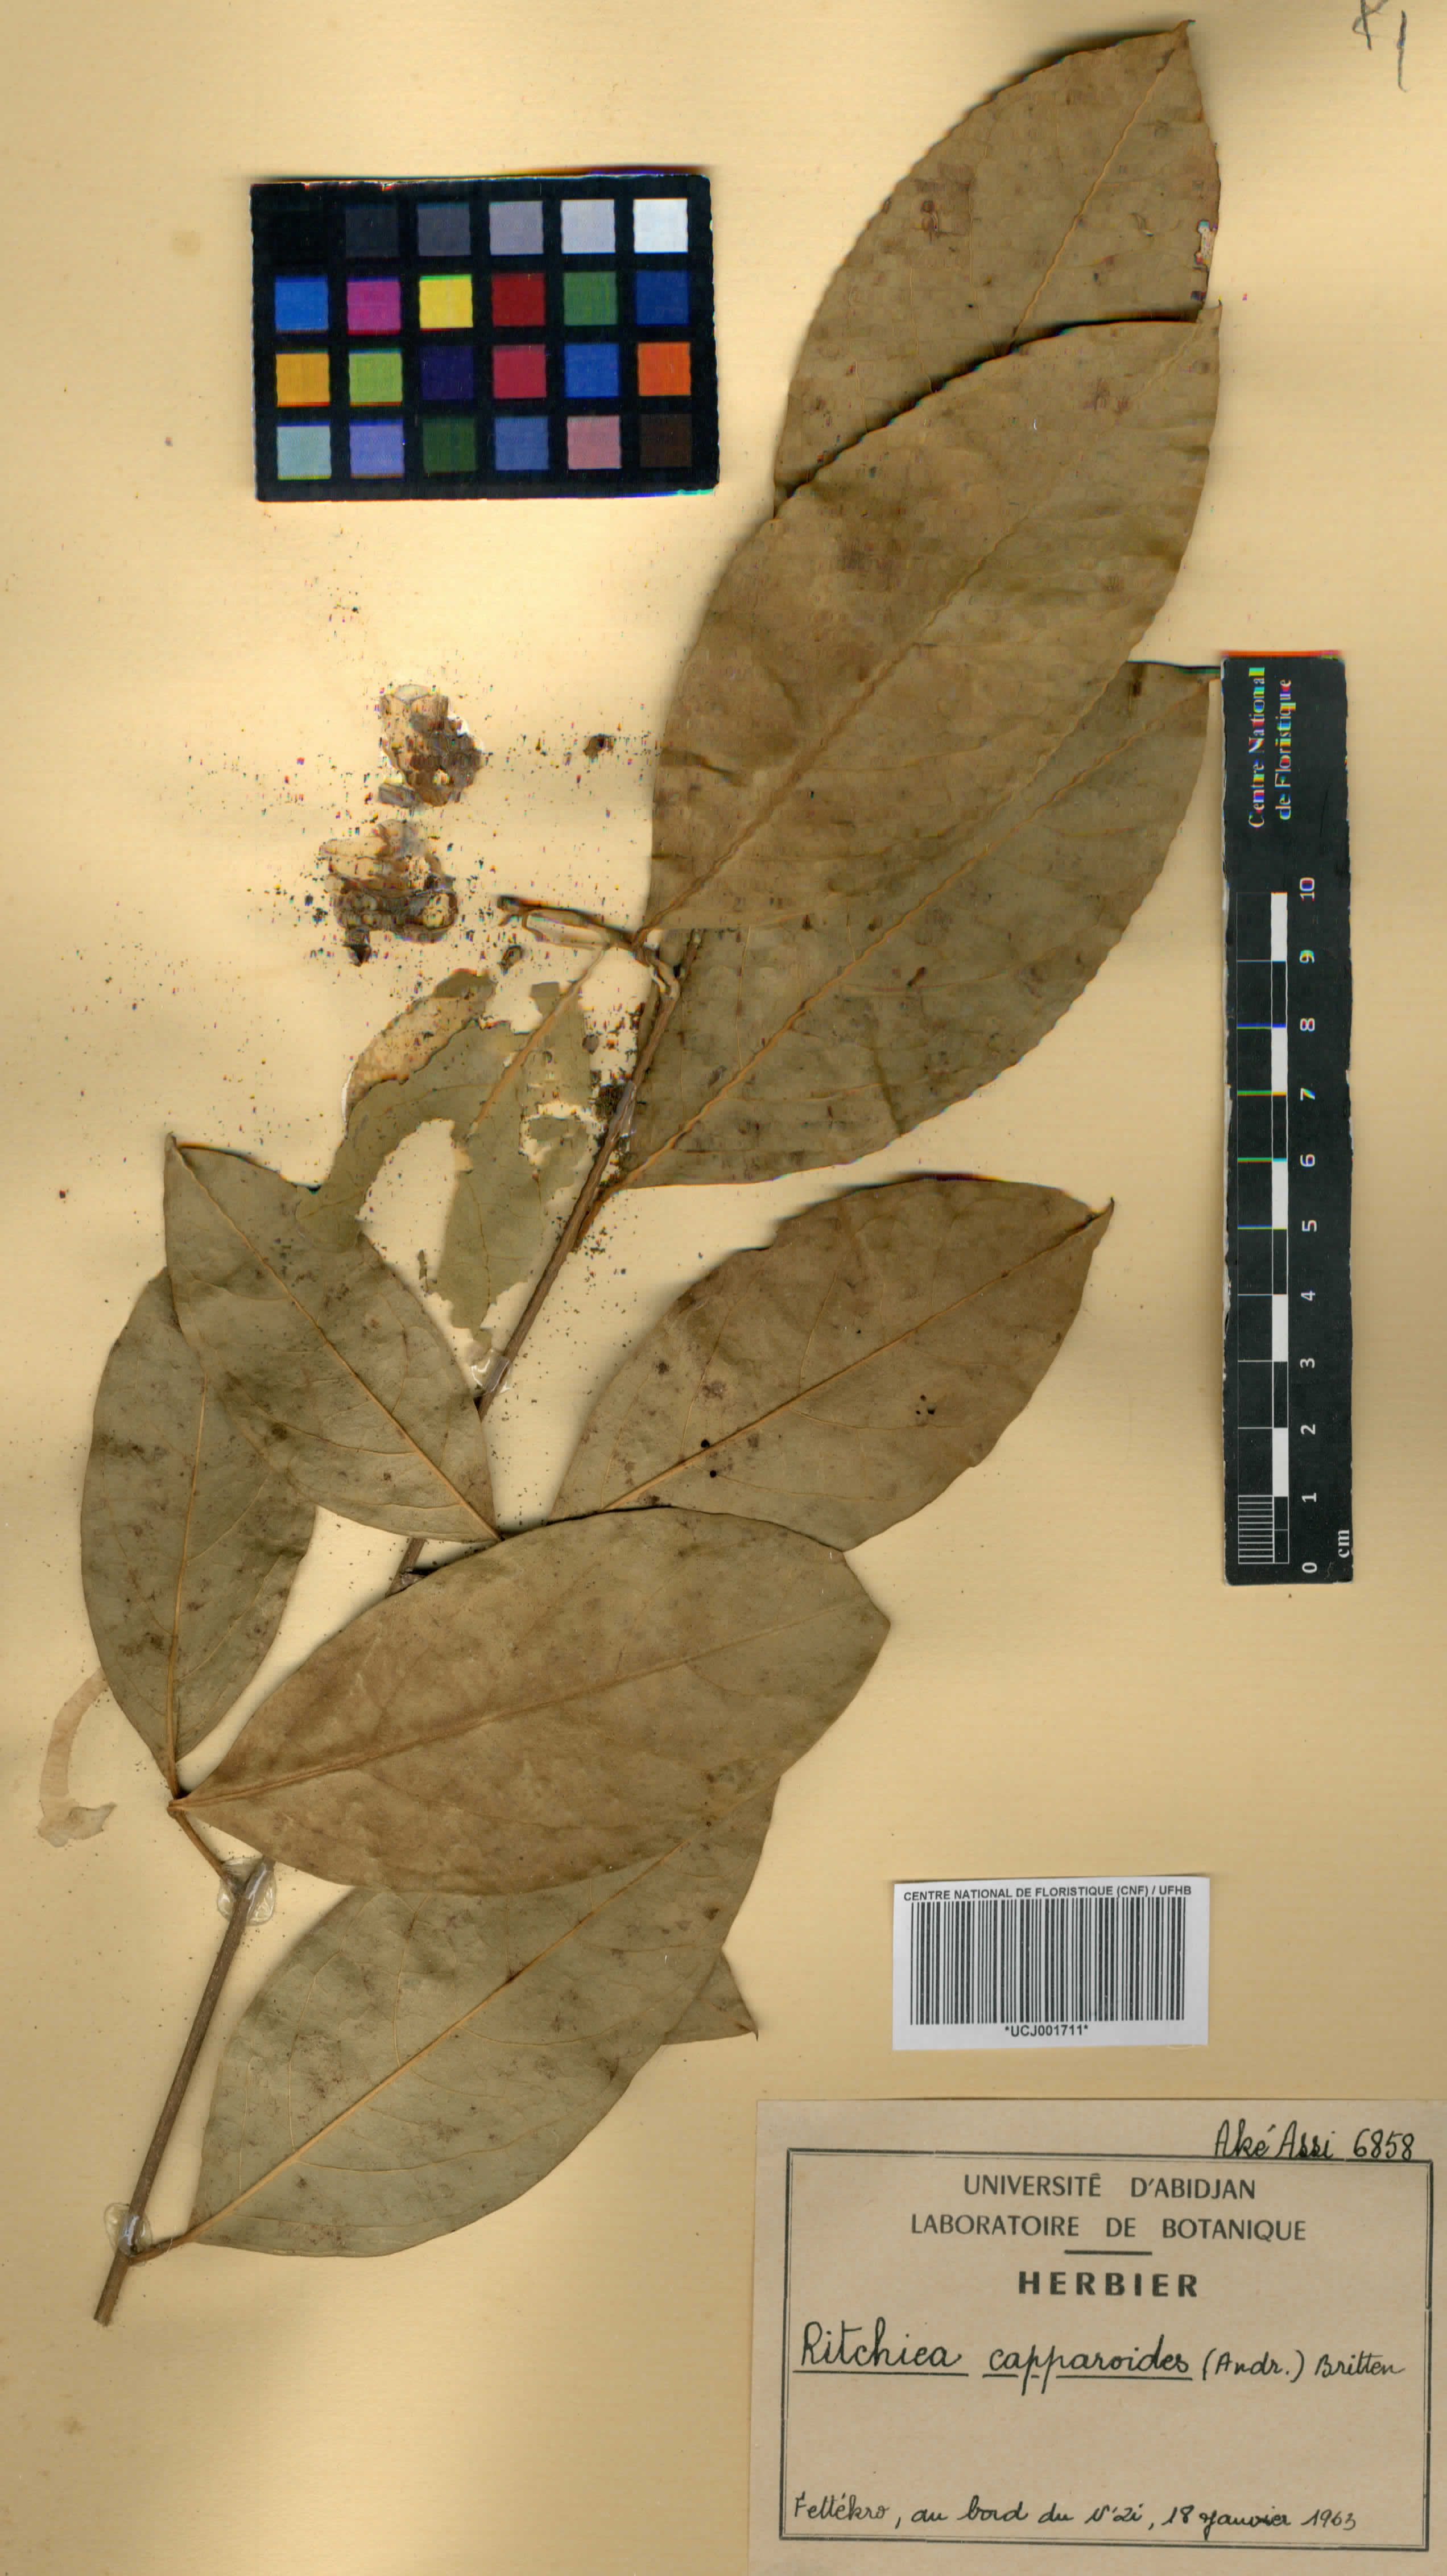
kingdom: Plantae
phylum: Tracheophyta
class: Magnoliopsida
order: Brassicales
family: Capparaceae
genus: Ritchiea
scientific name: Ritchiea capparoides
